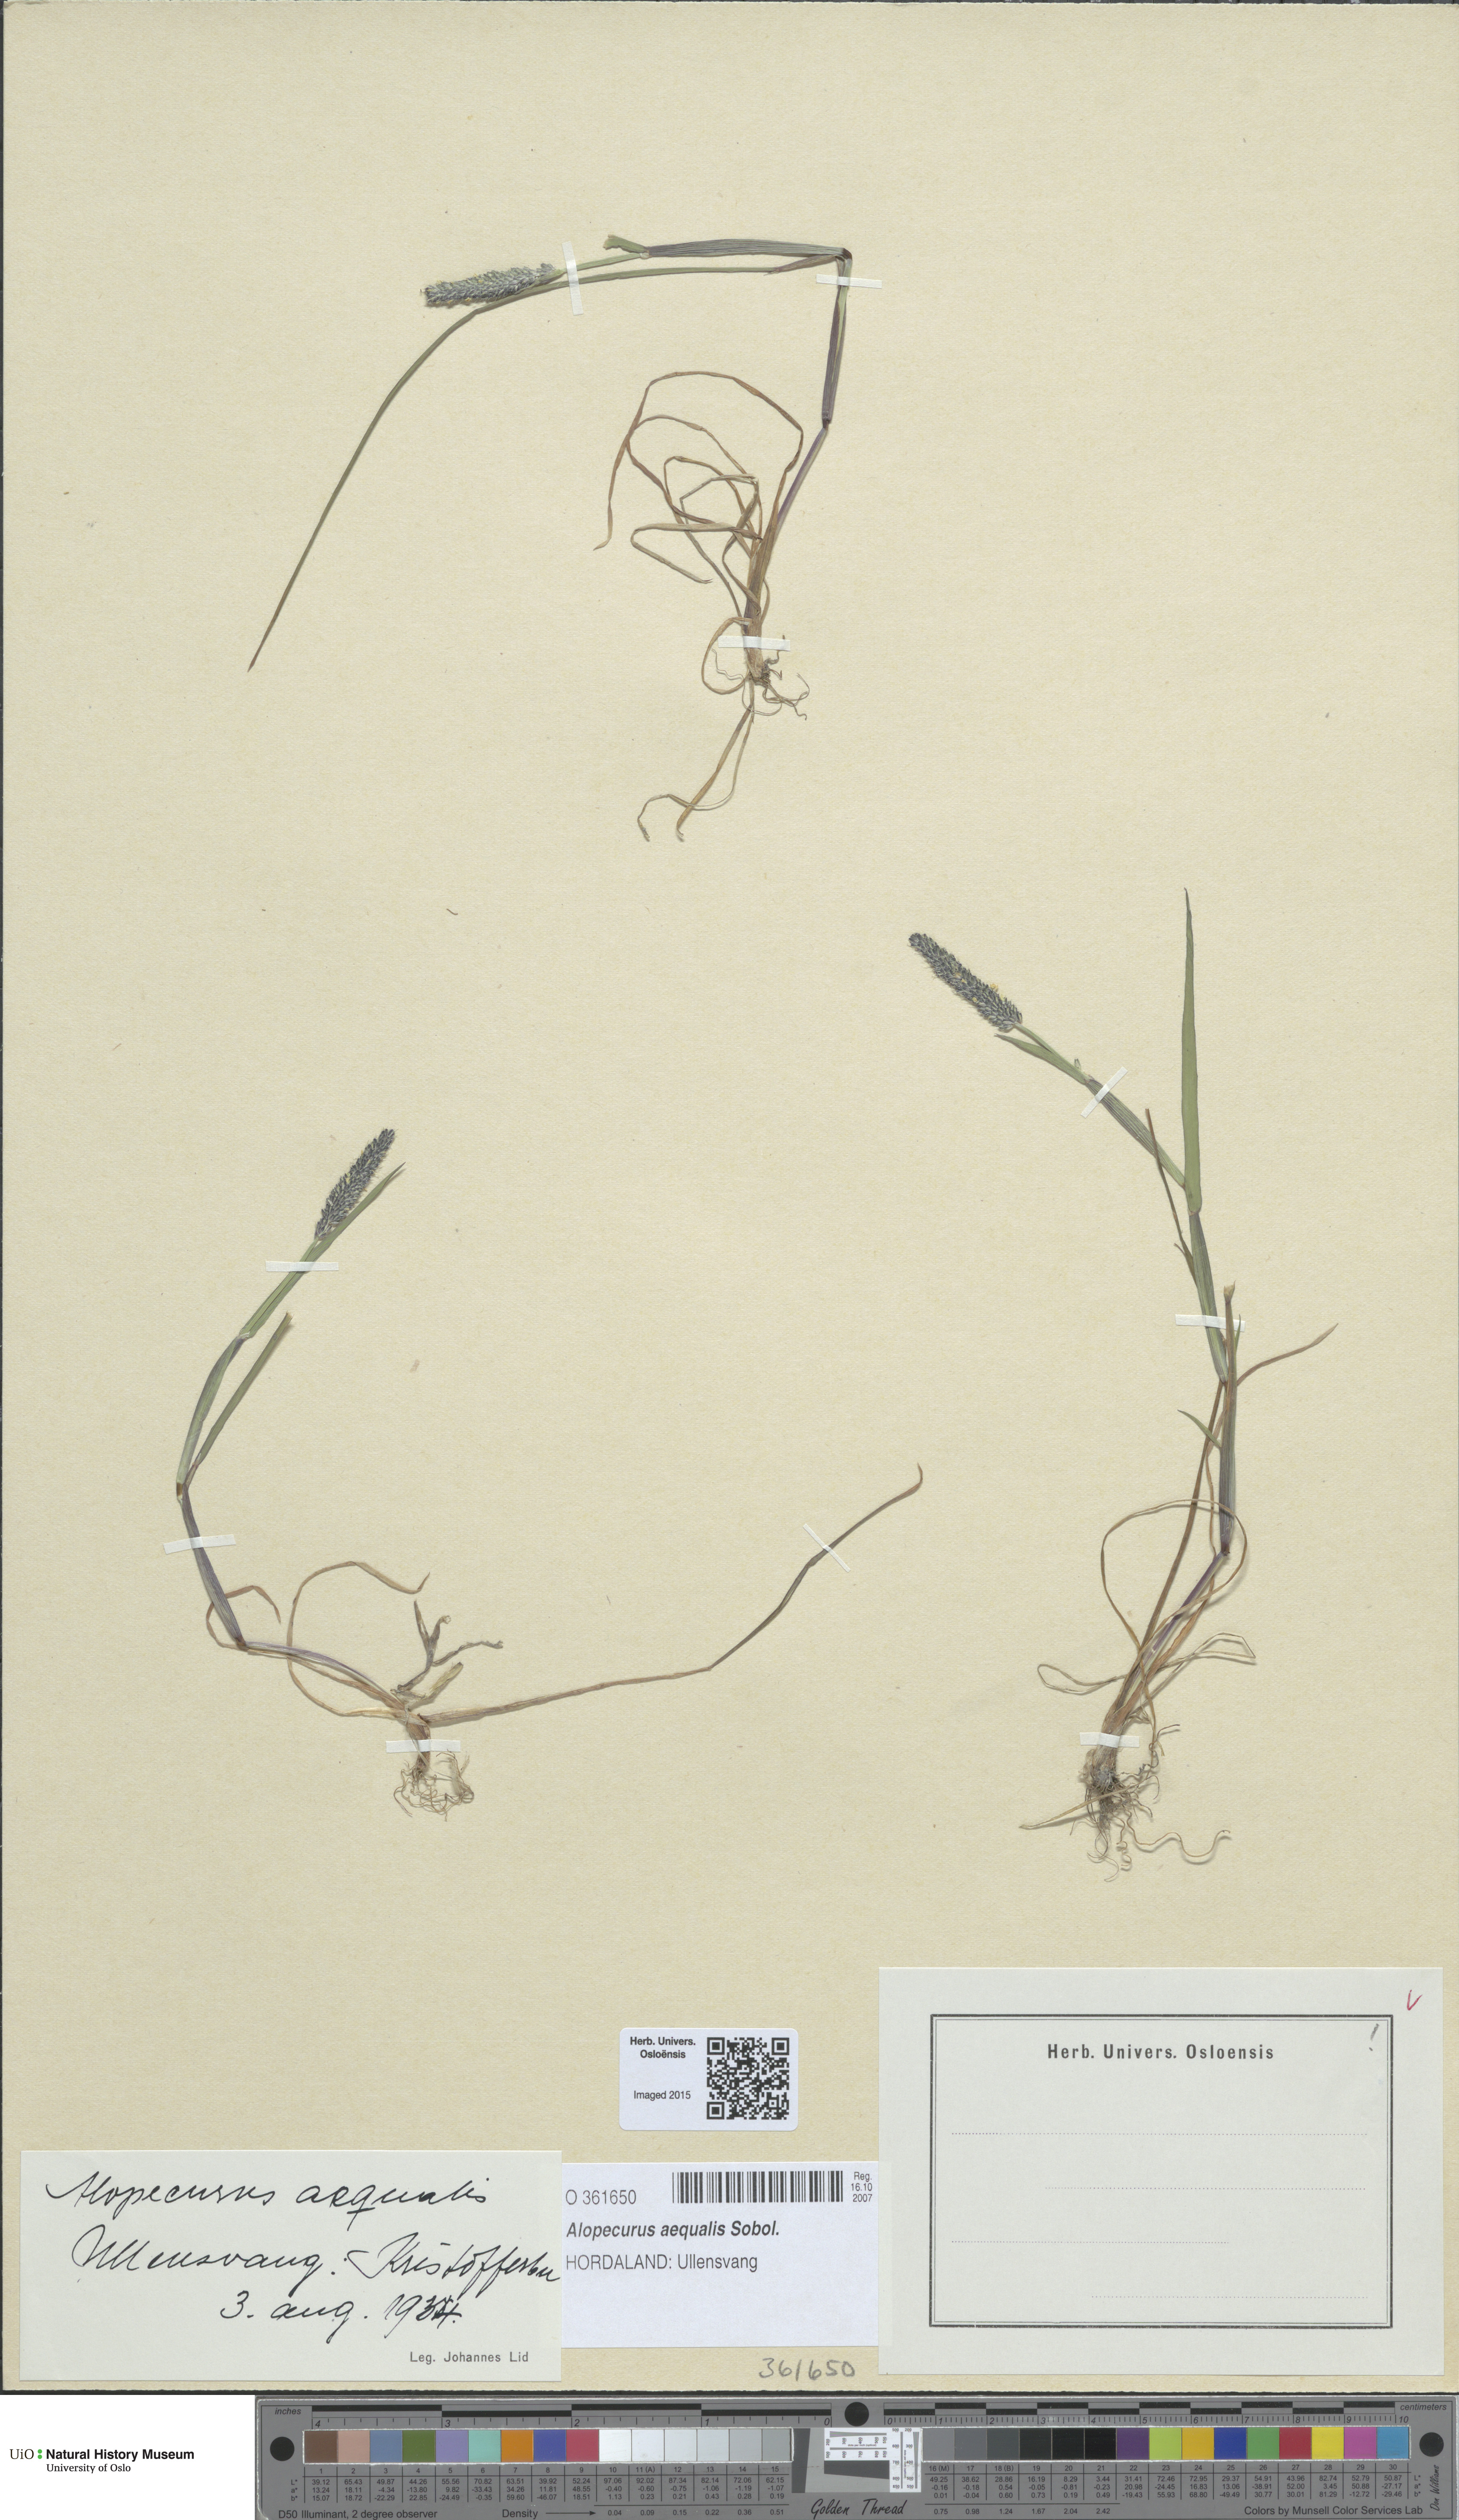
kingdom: Plantae
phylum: Tracheophyta
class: Liliopsida
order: Poales
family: Poaceae
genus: Alopecurus
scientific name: Alopecurus aequalis
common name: Orange foxtail
